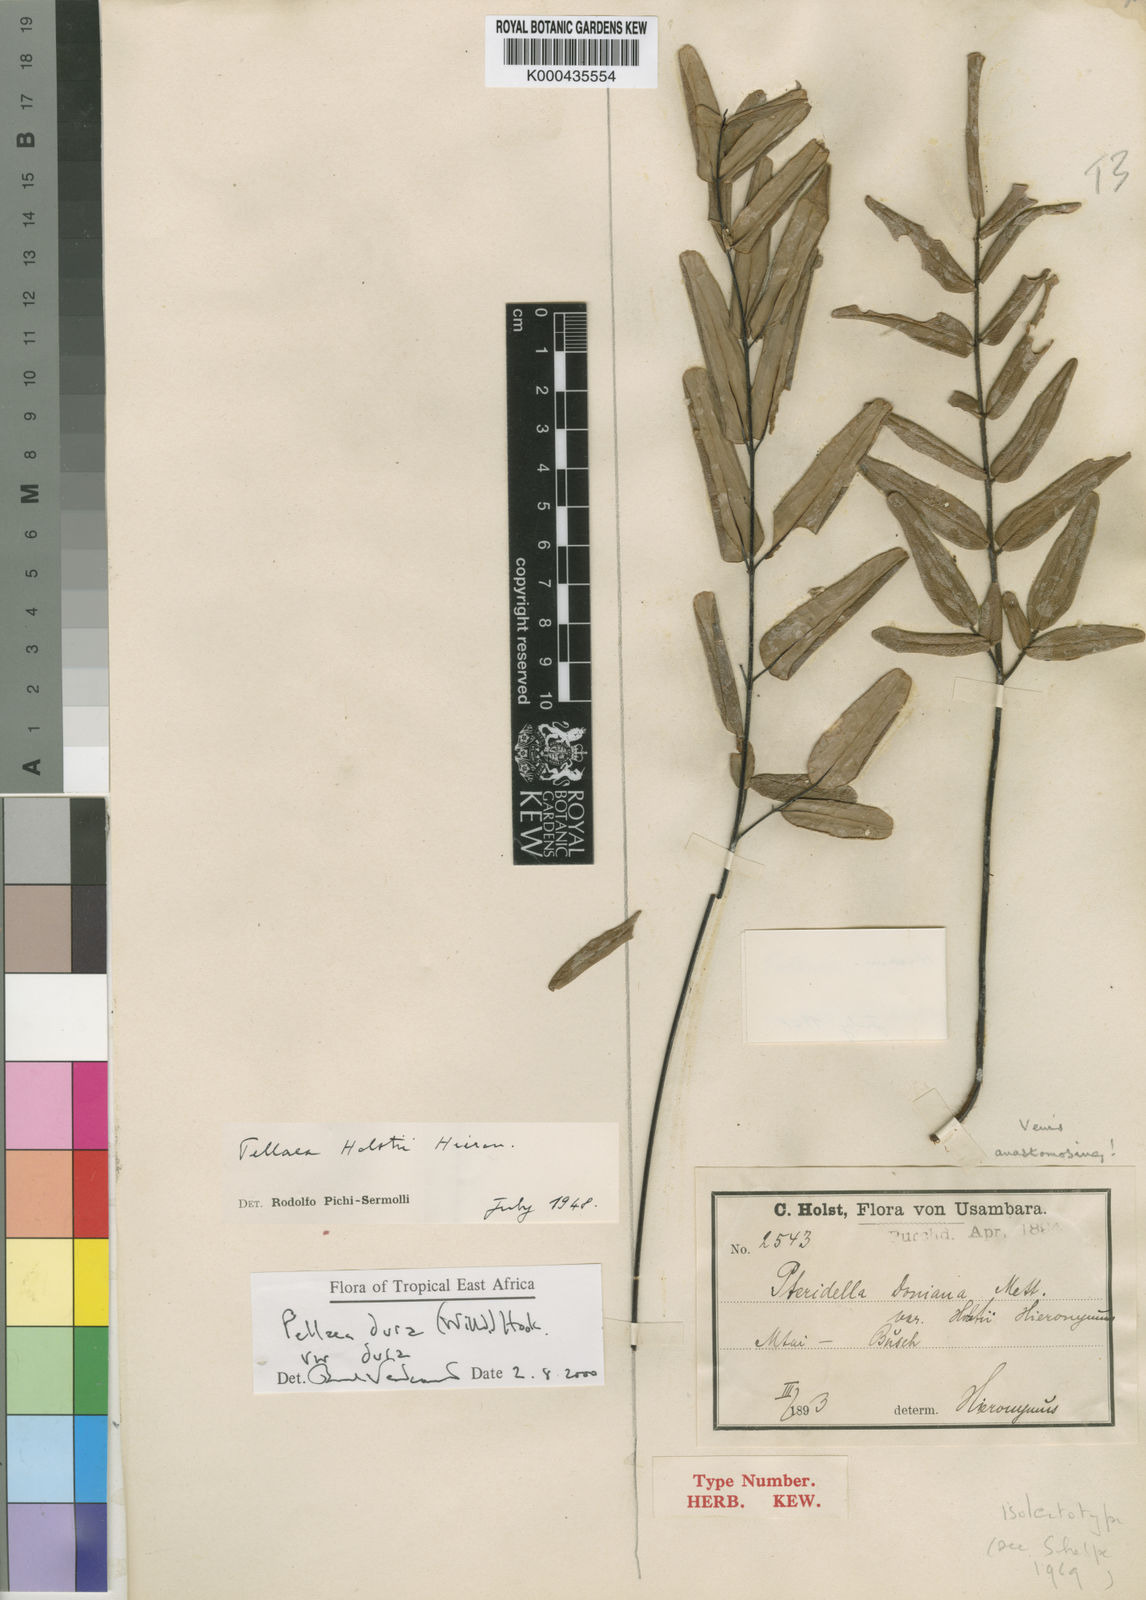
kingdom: Plantae
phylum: Tracheophyta
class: Polypodiopsida
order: Polypodiales
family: Pteridaceae
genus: Pellaea
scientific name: Pellaea
